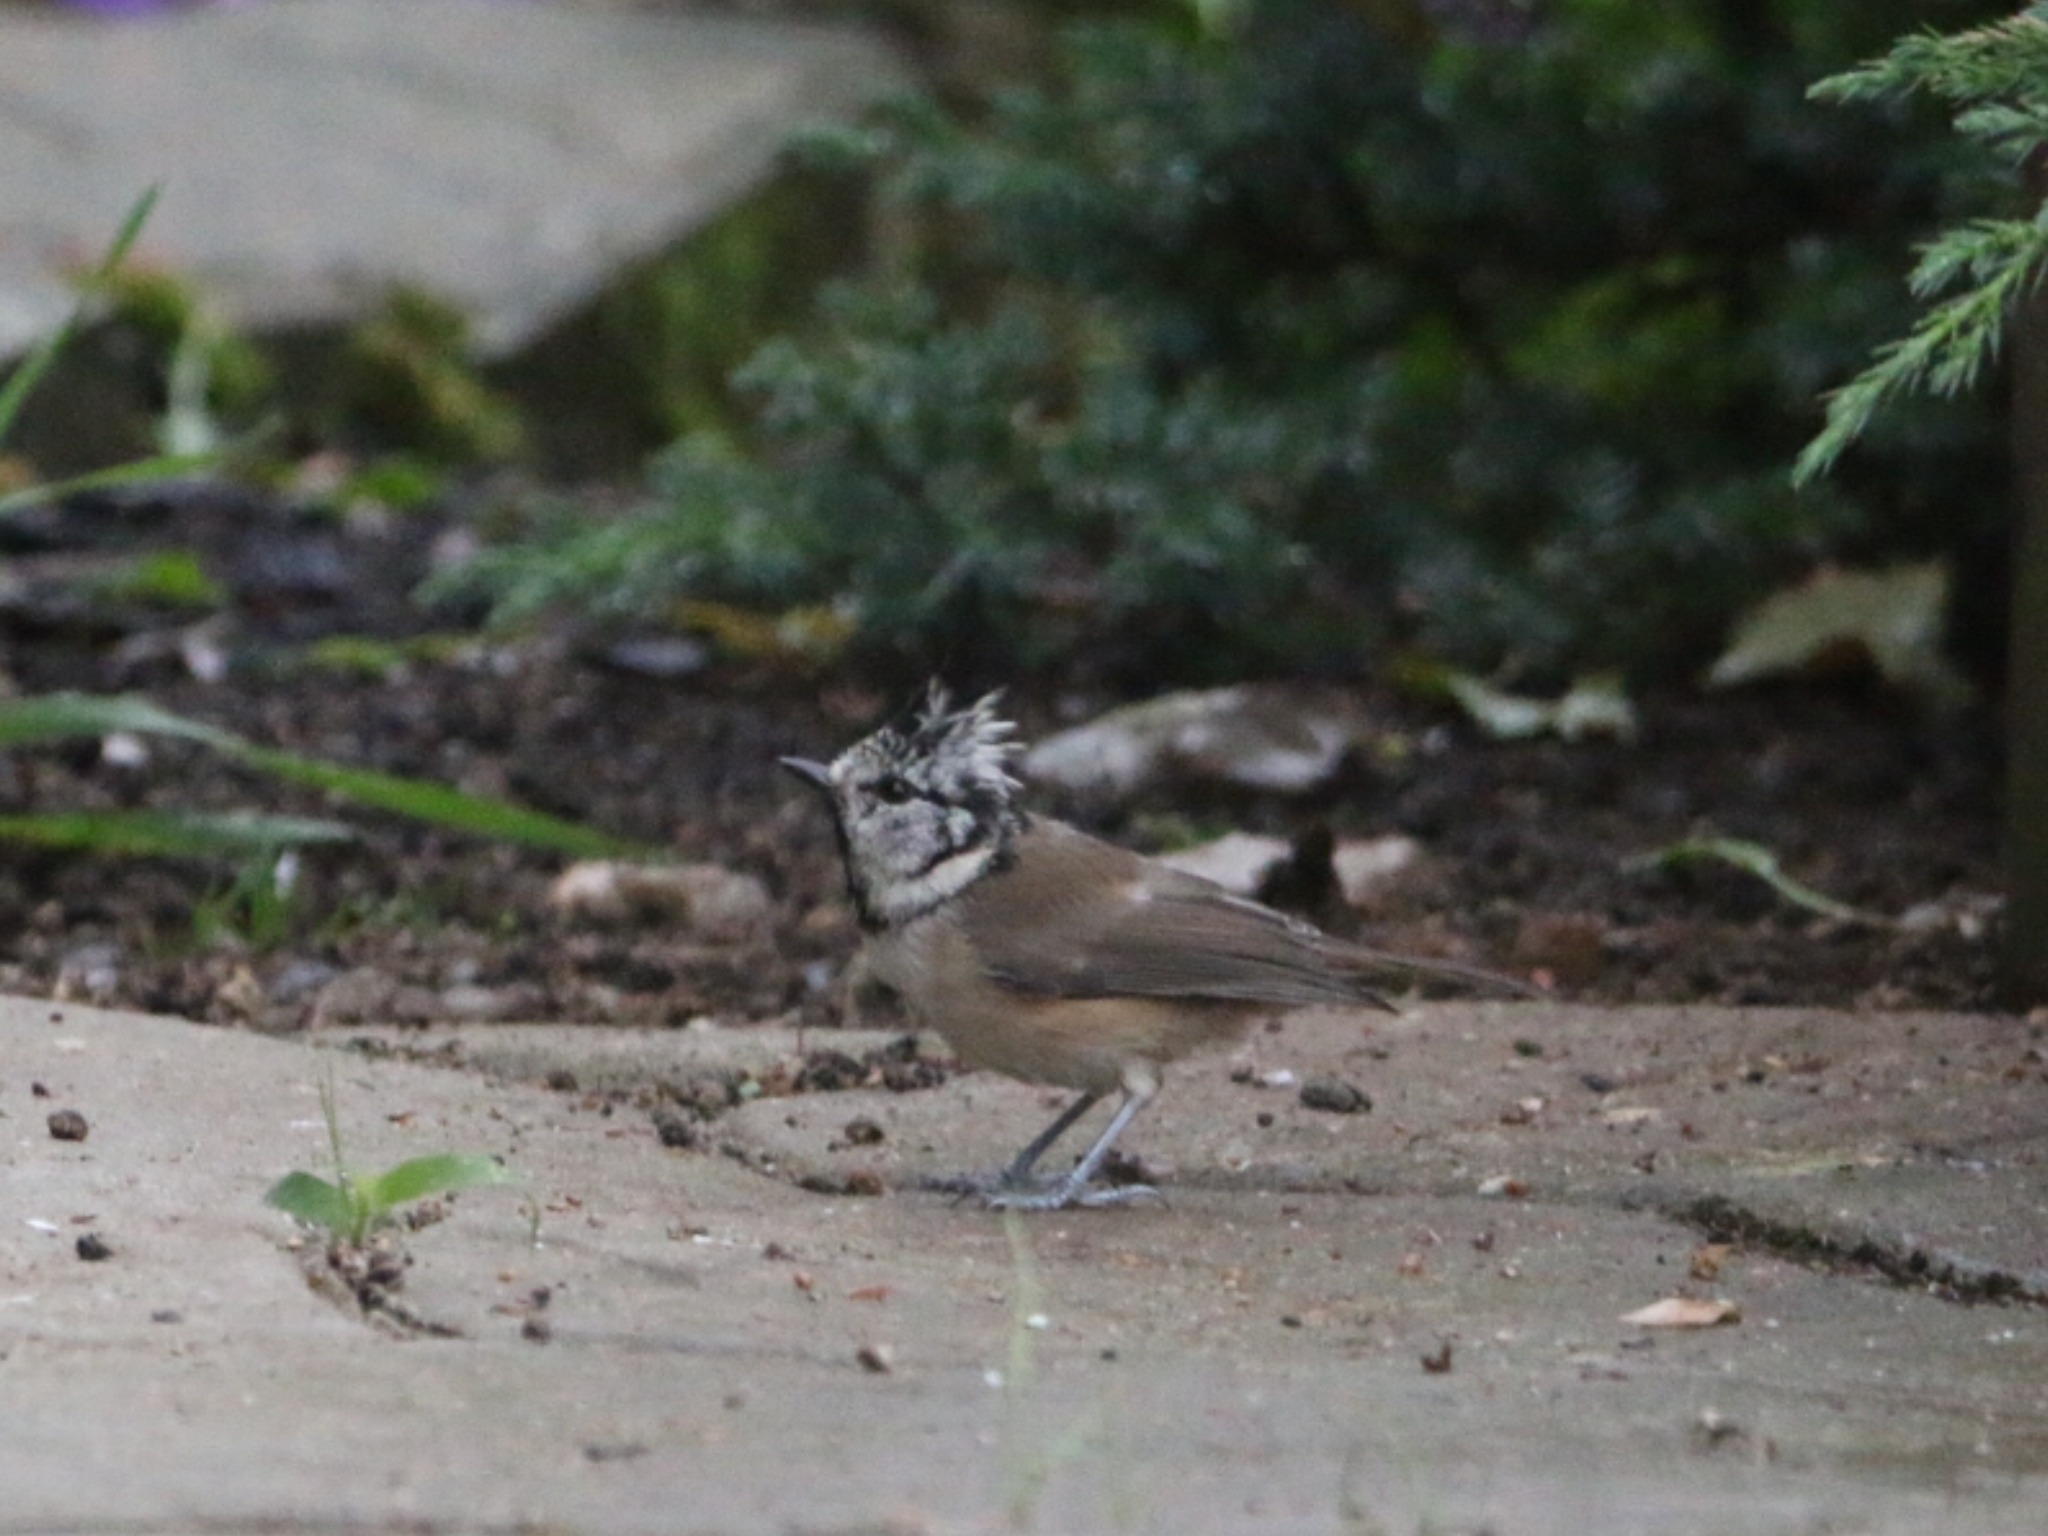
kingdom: Animalia
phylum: Chordata
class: Aves
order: Passeriformes
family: Paridae
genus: Lophophanes
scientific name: Lophophanes cristatus
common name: Topmejse
